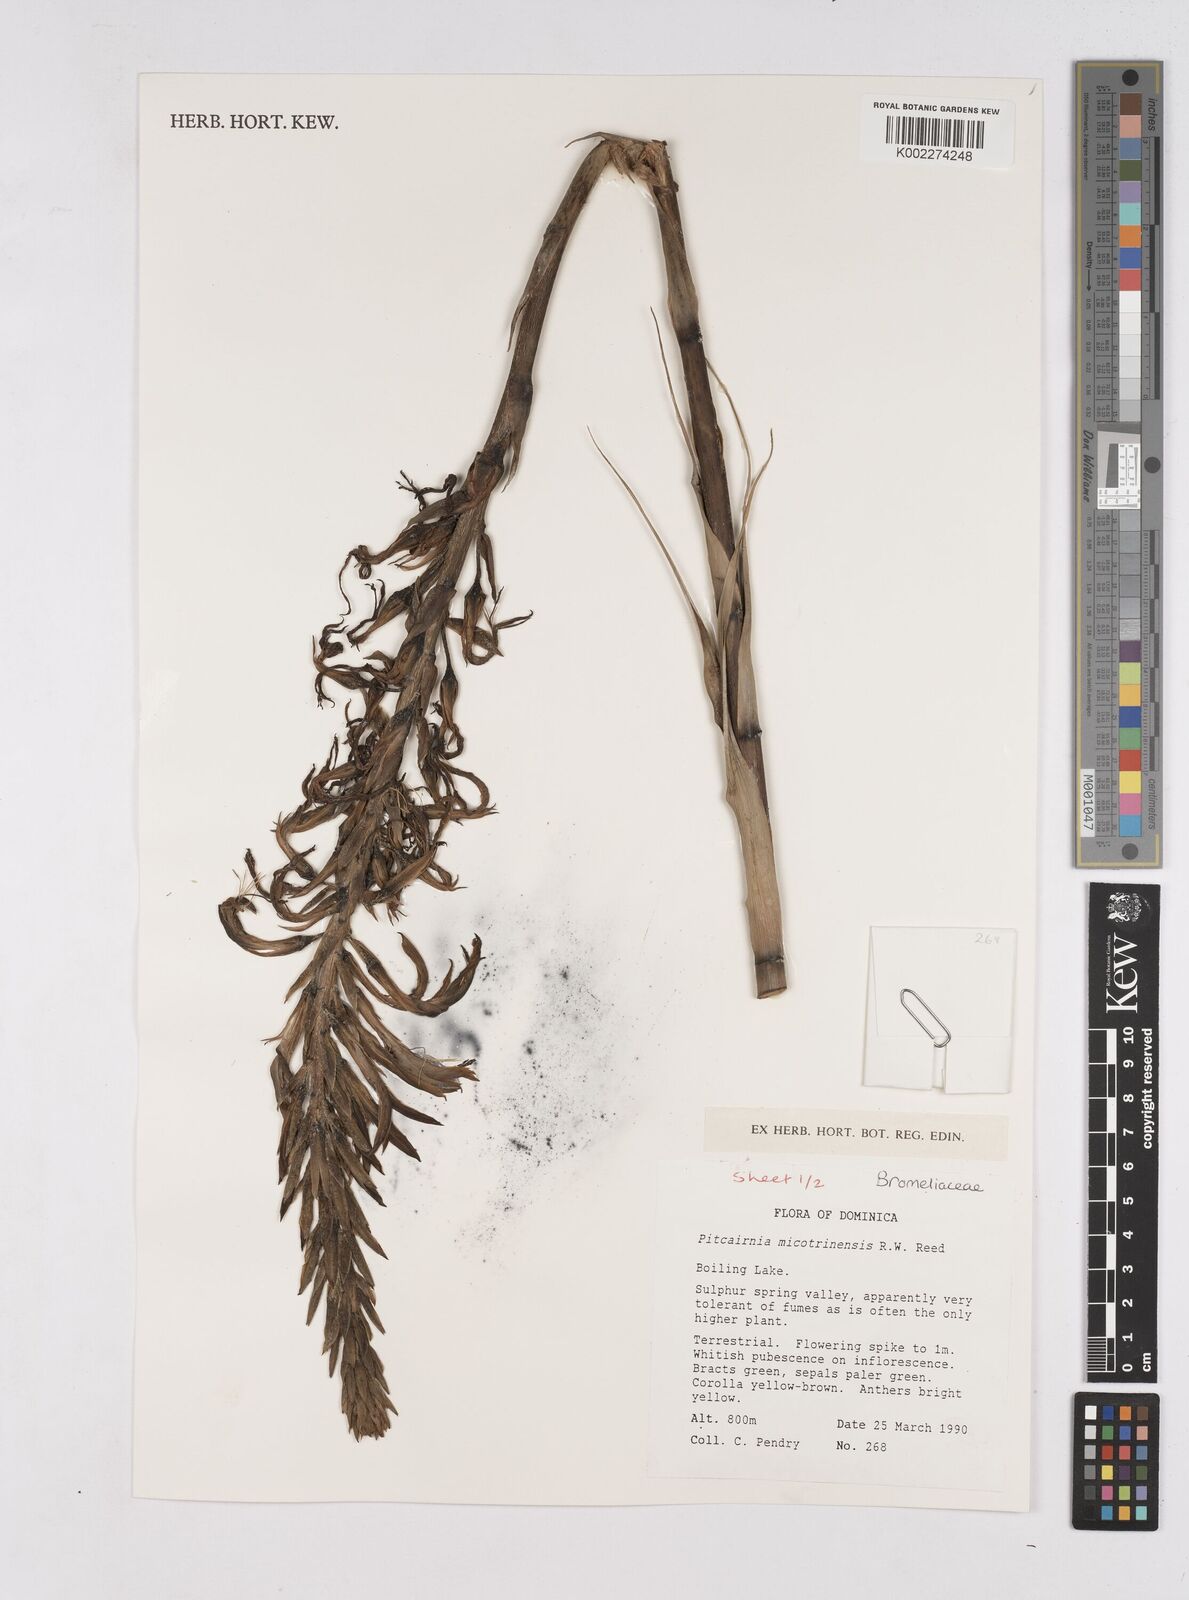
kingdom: Plantae
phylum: Tracheophyta
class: Liliopsida
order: Poales
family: Bromeliaceae
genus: Pitcairnia
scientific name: Pitcairnia micotrinensis
